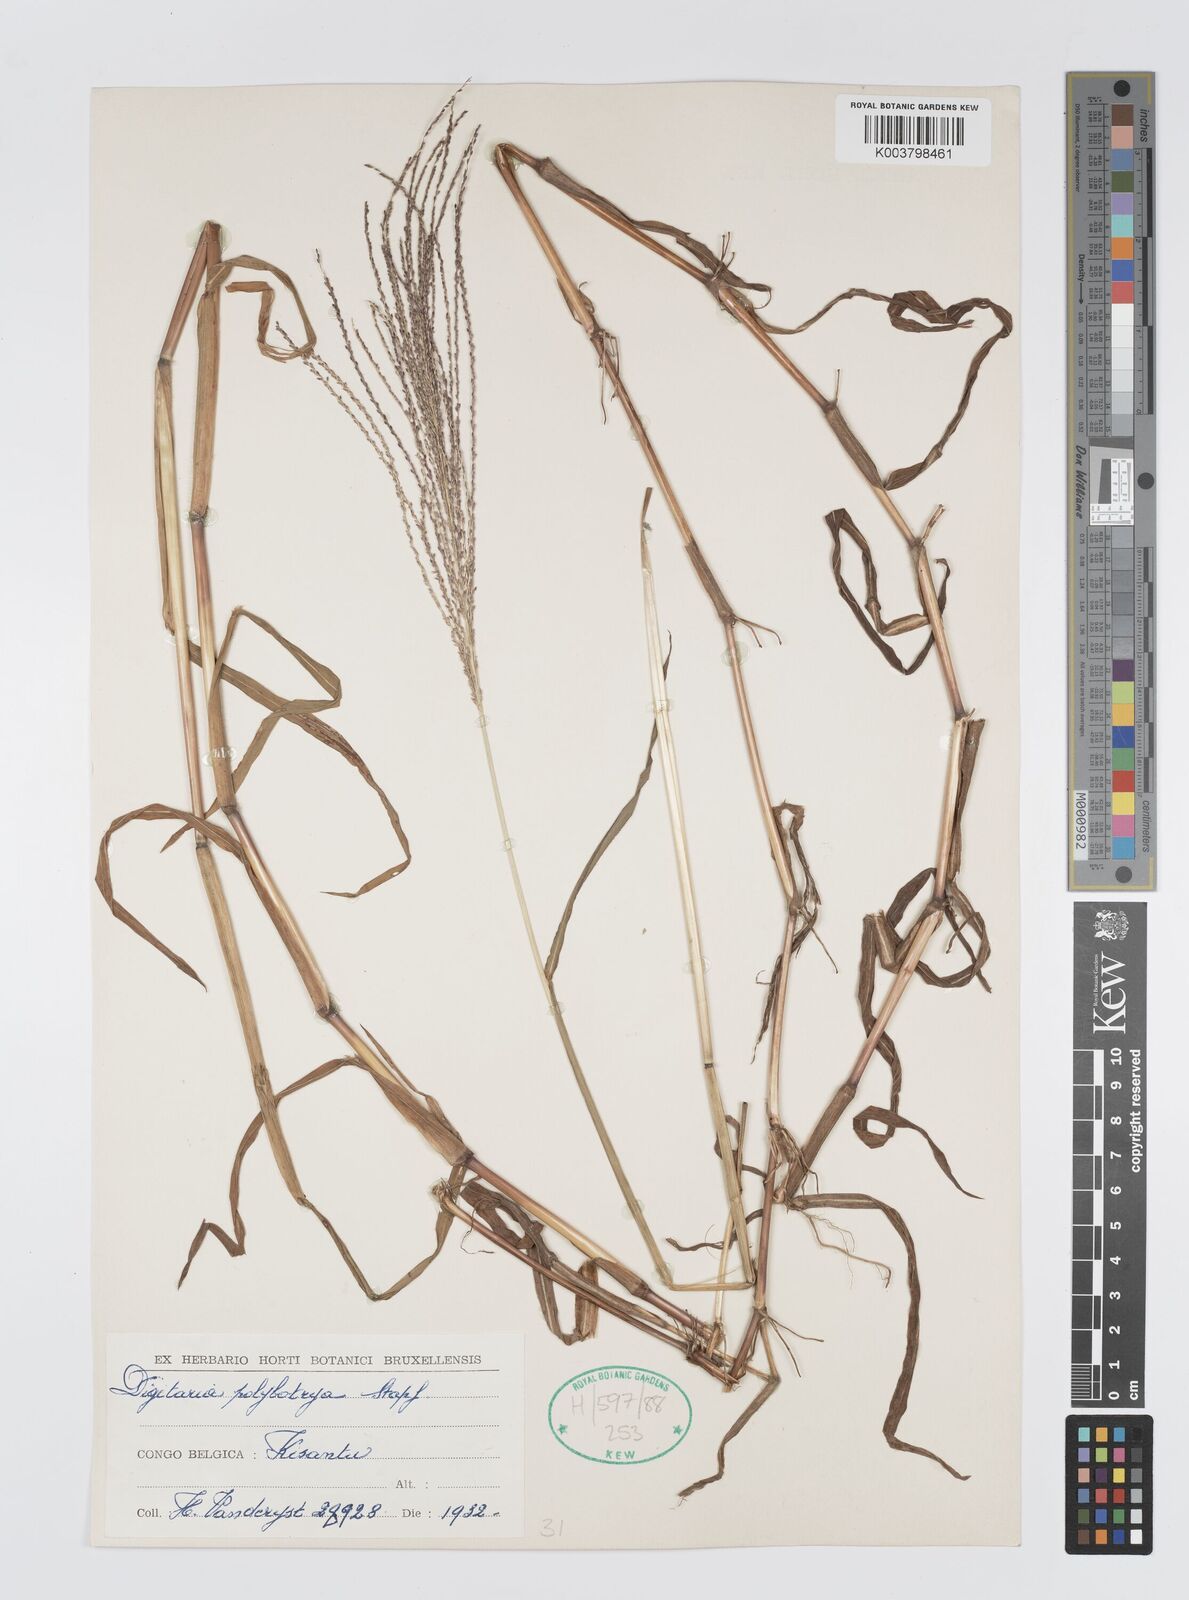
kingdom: Plantae
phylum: Tracheophyta
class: Liliopsida
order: Poales
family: Poaceae
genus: Digitaria
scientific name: Digitaria leptorhachis
